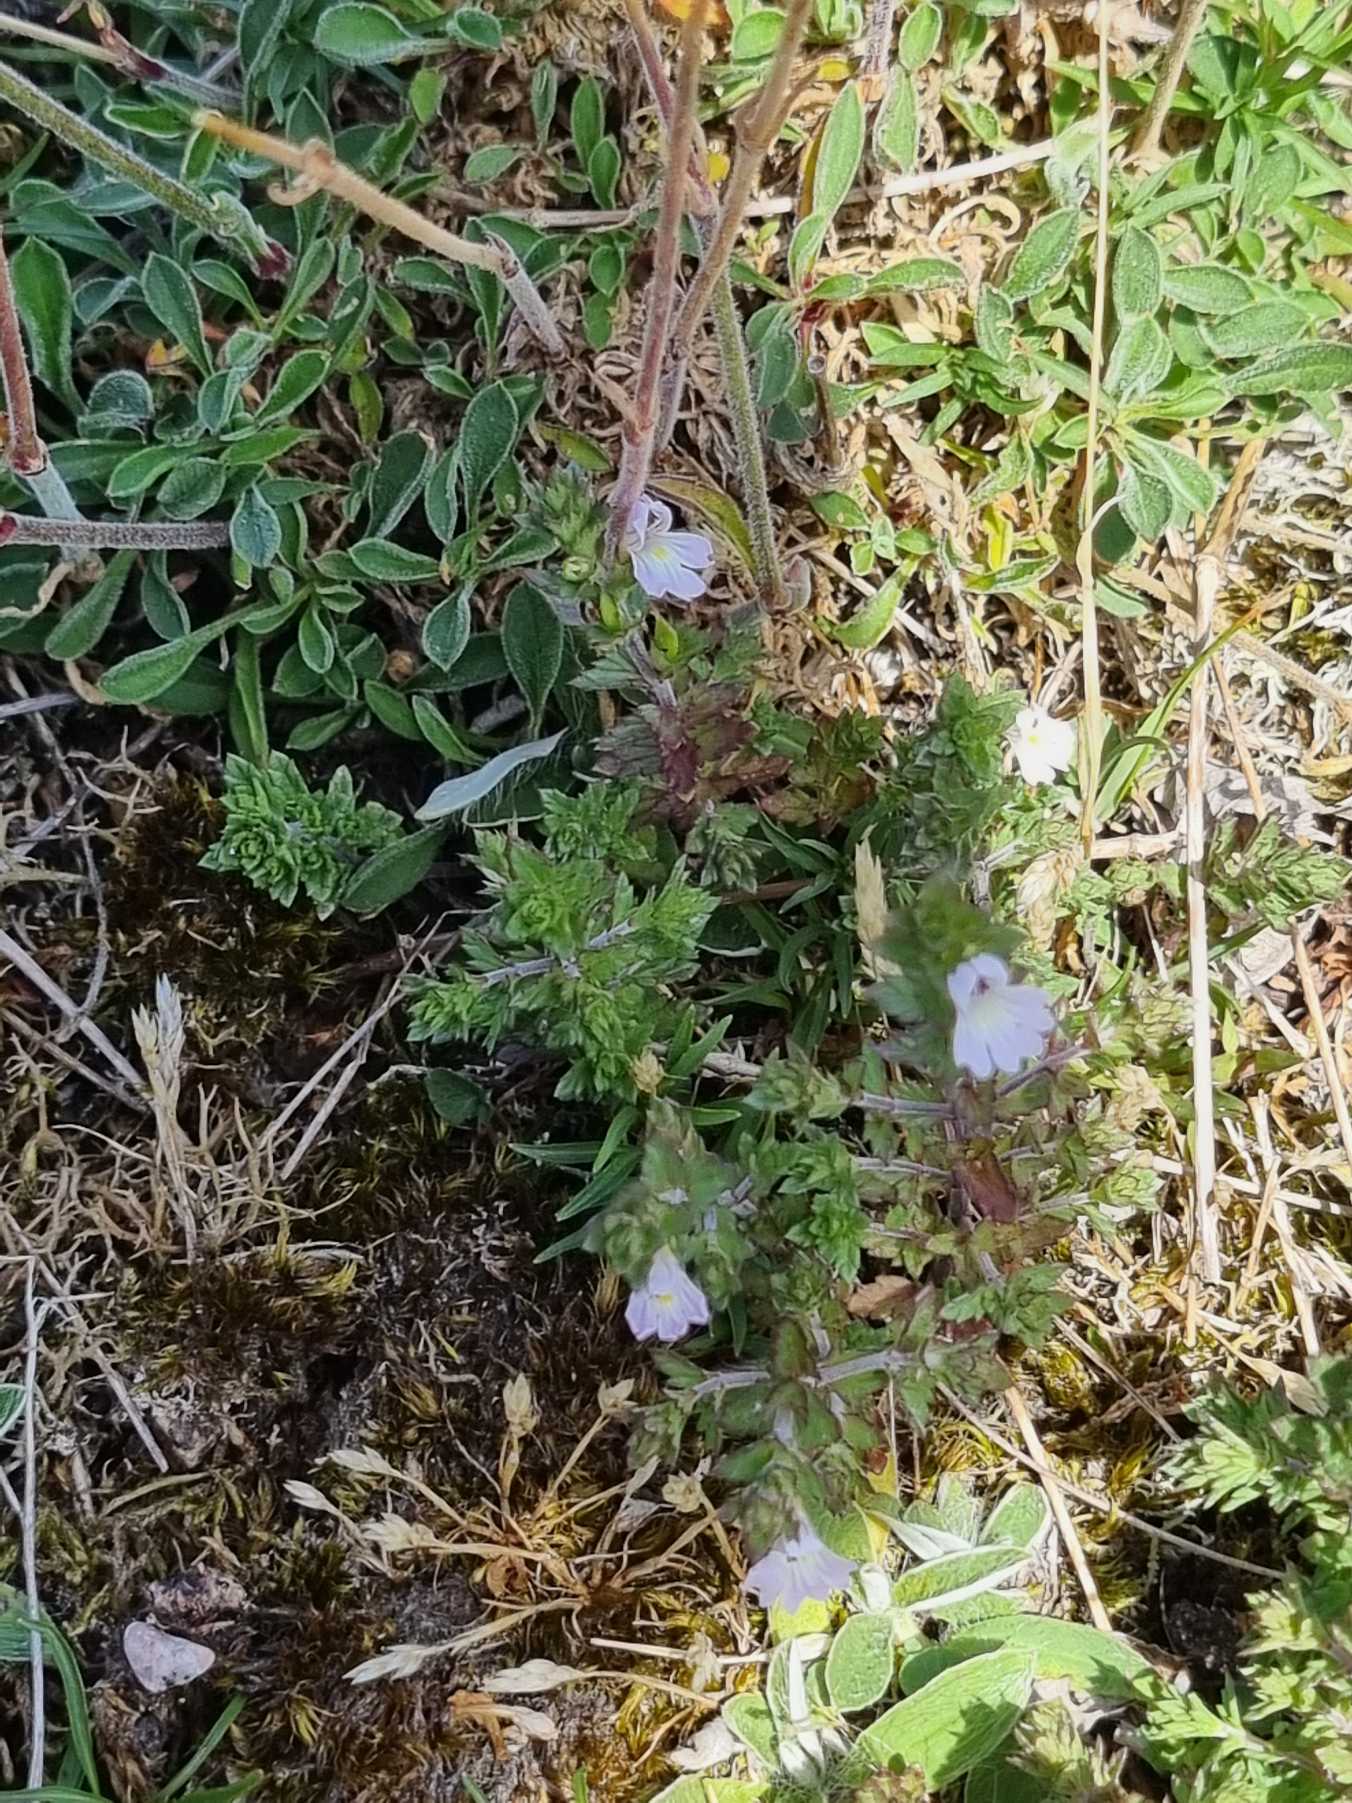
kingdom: Plantae
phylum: Tracheophyta
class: Magnoliopsida
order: Lamiales
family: Orobanchaceae
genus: Euphrasia
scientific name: Euphrasia stricta
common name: Spids øjentrøst
